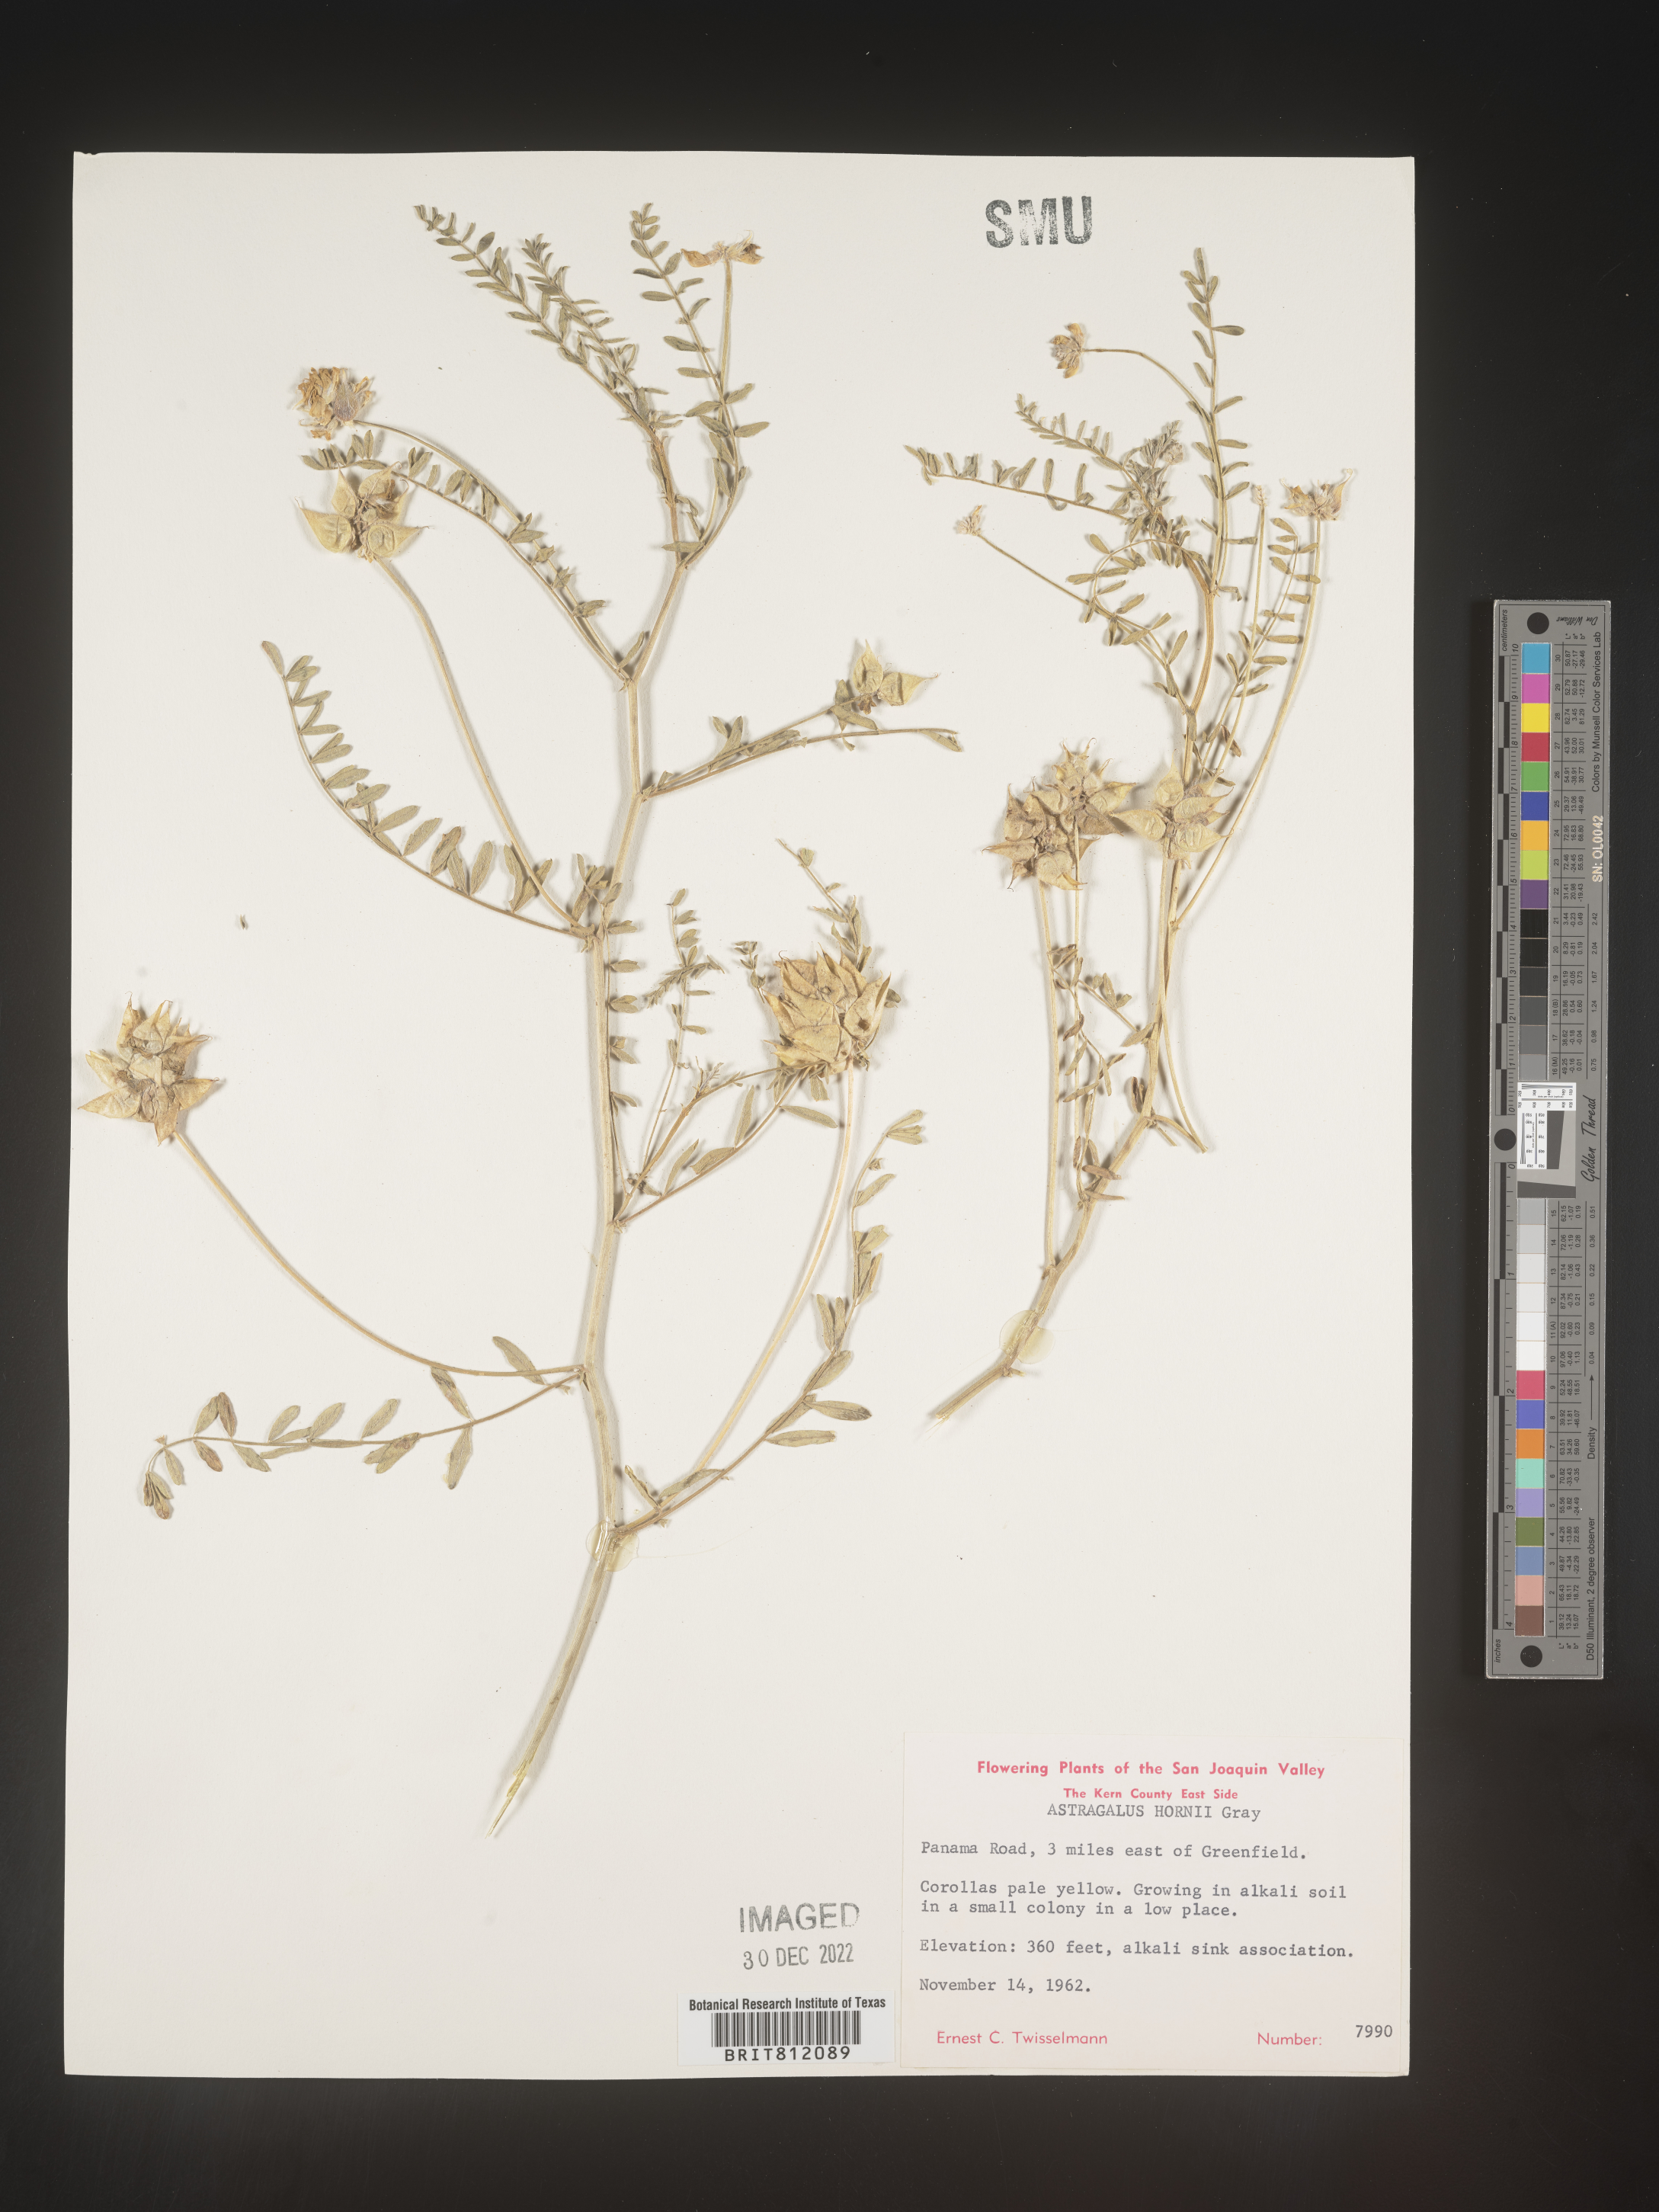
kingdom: Plantae
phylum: Tracheophyta
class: Magnoliopsida
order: Fabales
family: Fabaceae
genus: Astragalus
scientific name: Astragalus
